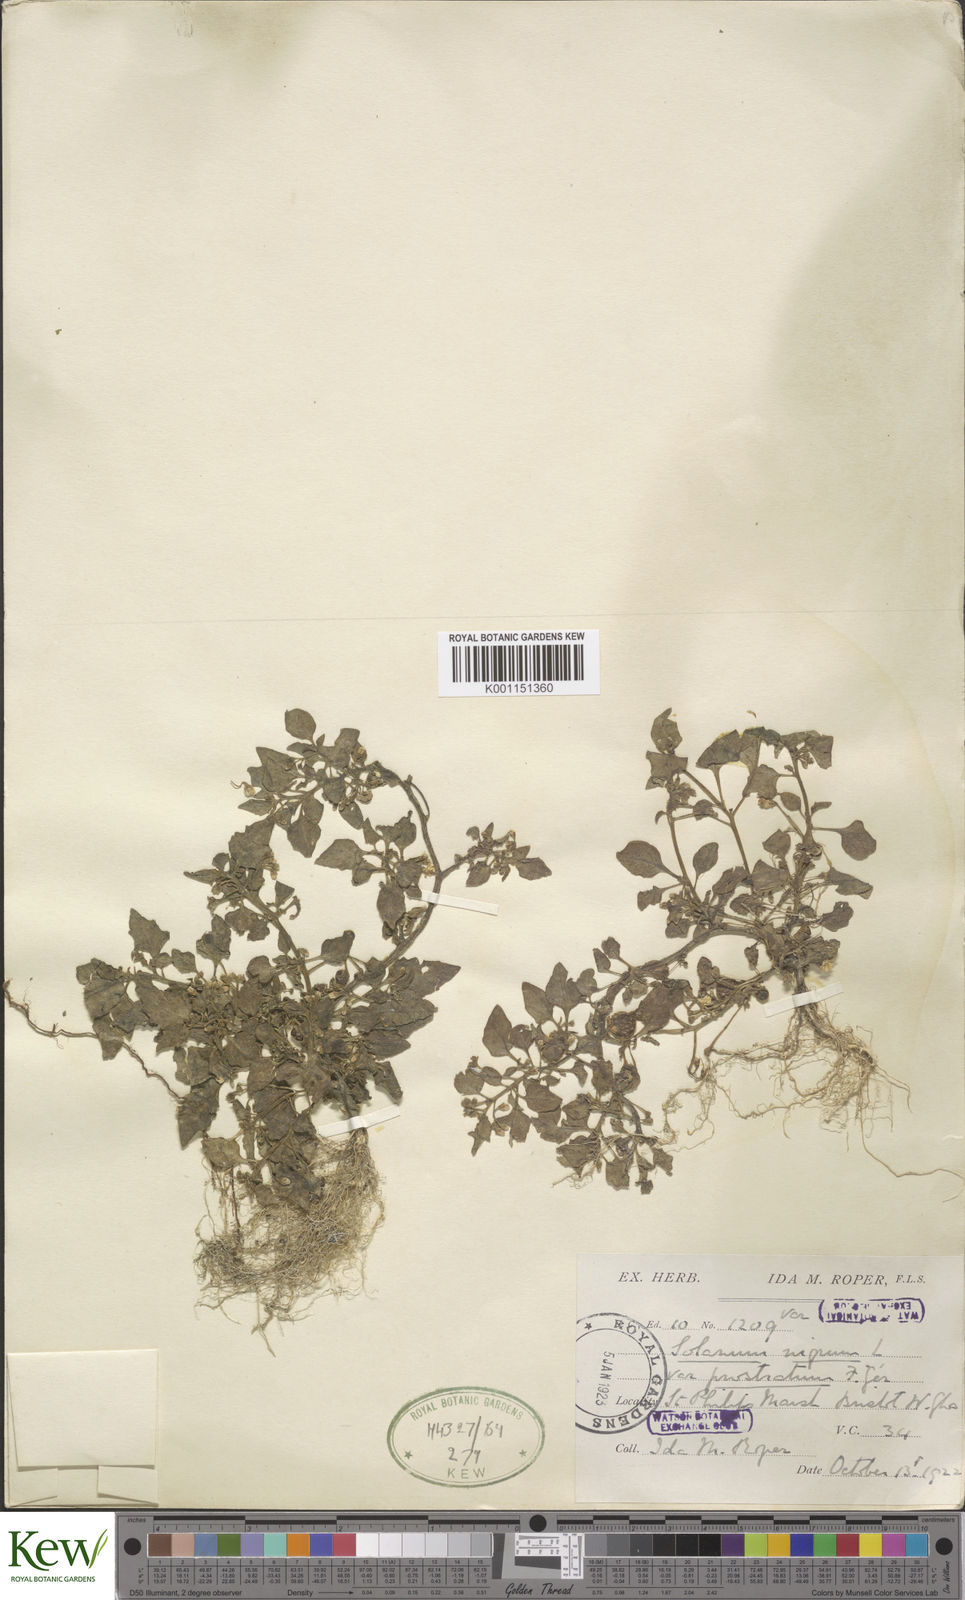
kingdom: Plantae
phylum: Tracheophyta
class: Magnoliopsida
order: Solanales
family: Solanaceae
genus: Solanum
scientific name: Solanum nigrum
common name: Black nightshade
